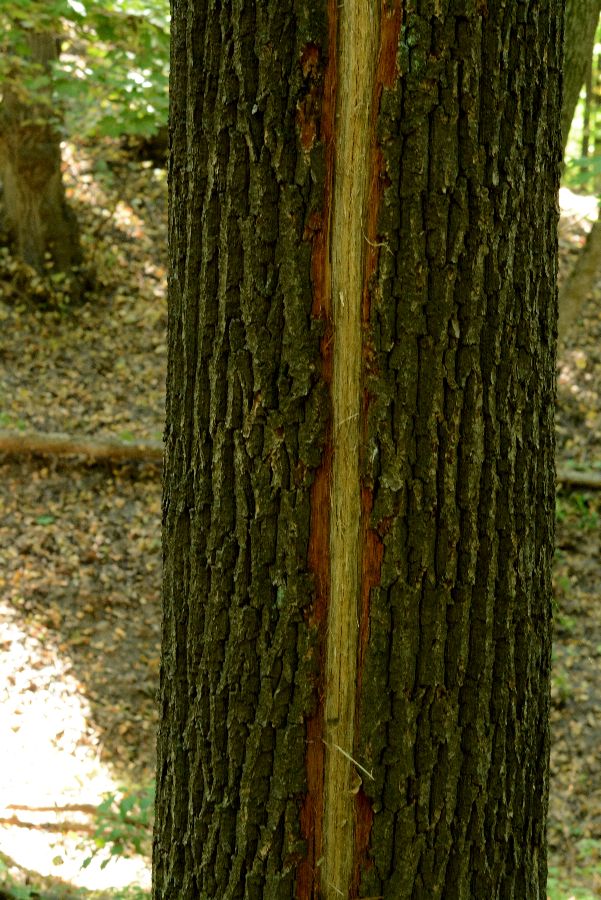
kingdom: Plantae
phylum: Tracheophyta
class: Magnoliopsida
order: Fagales
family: Fagaceae
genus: Quercus
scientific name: Quercus robur
